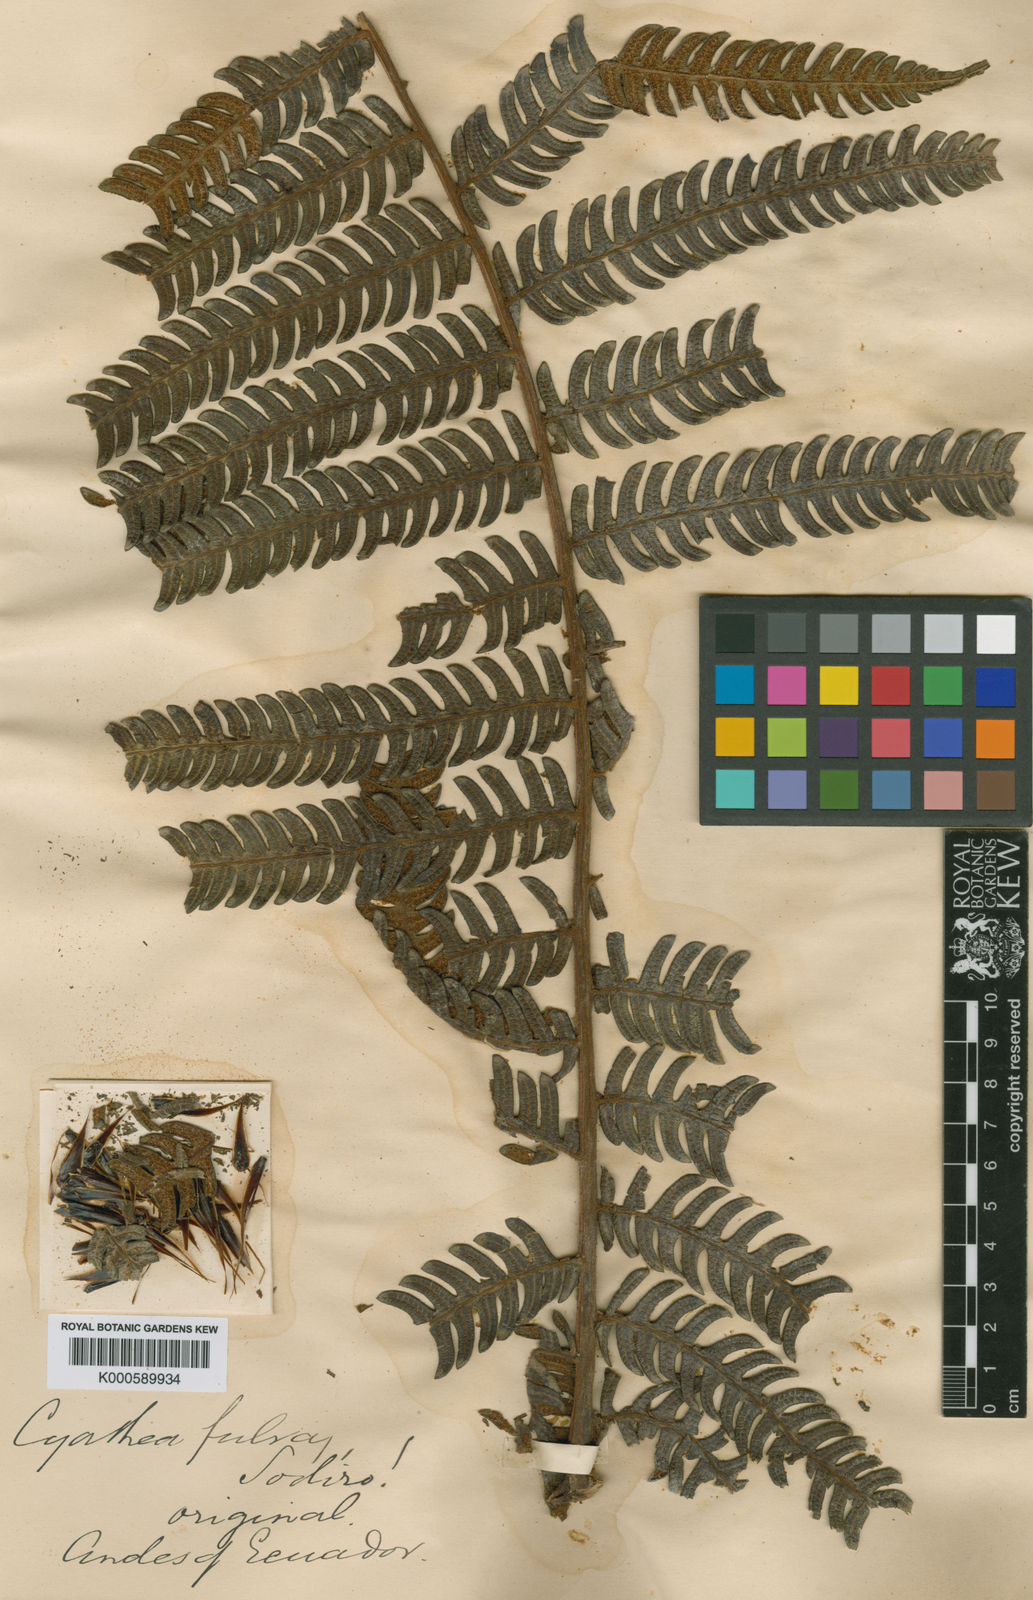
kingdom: Plantae
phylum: Tracheophyta
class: Polypodiopsida
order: Cyatheales
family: Cyatheaceae
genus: Cyathea
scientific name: Cyathea caracasana
